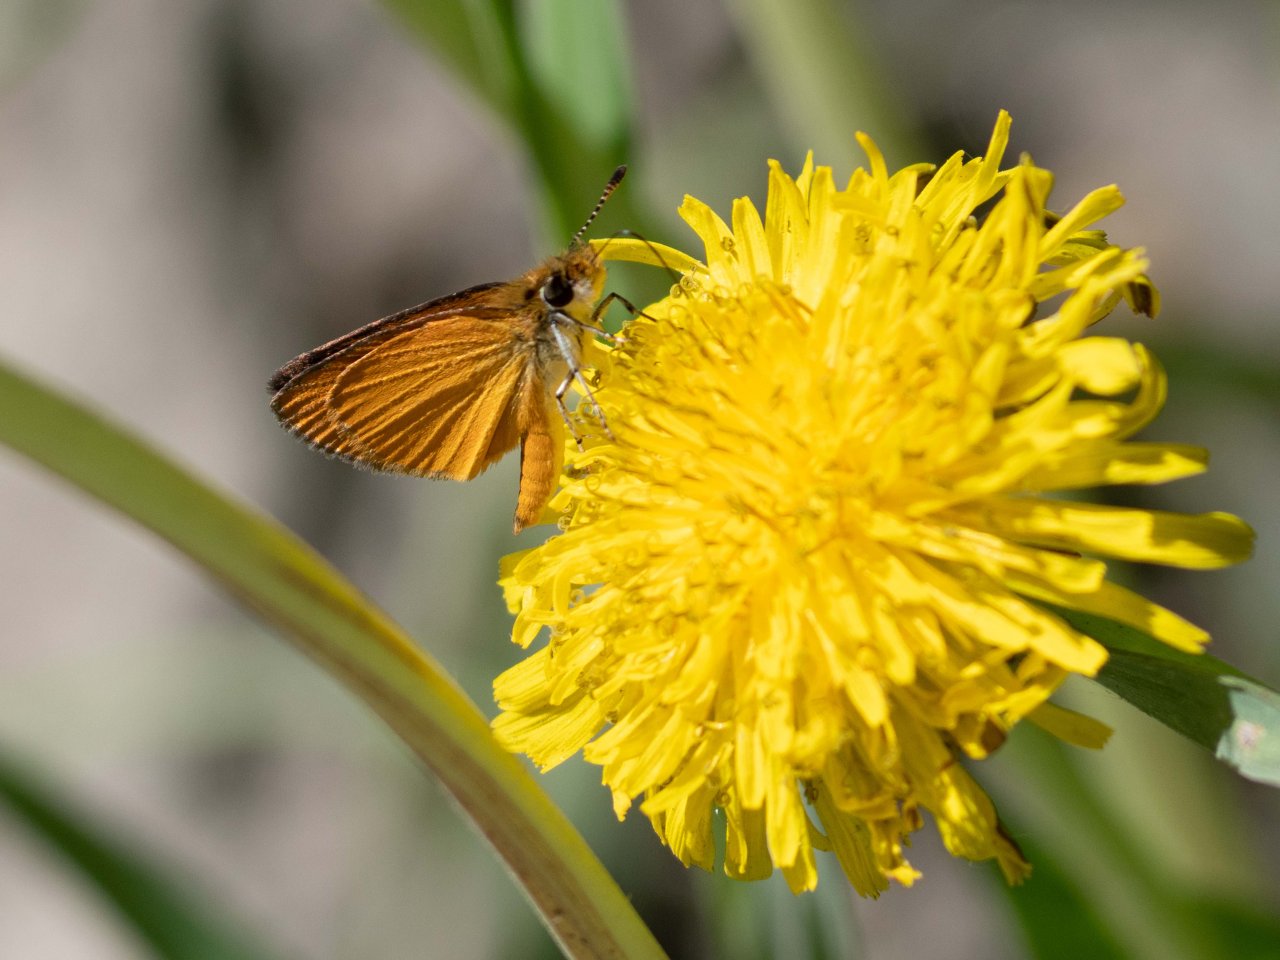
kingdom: Animalia
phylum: Arthropoda
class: Insecta
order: Lepidoptera
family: Hesperiidae
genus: Ancyloxypha
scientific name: Ancyloxypha numitor
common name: Least Skipper
